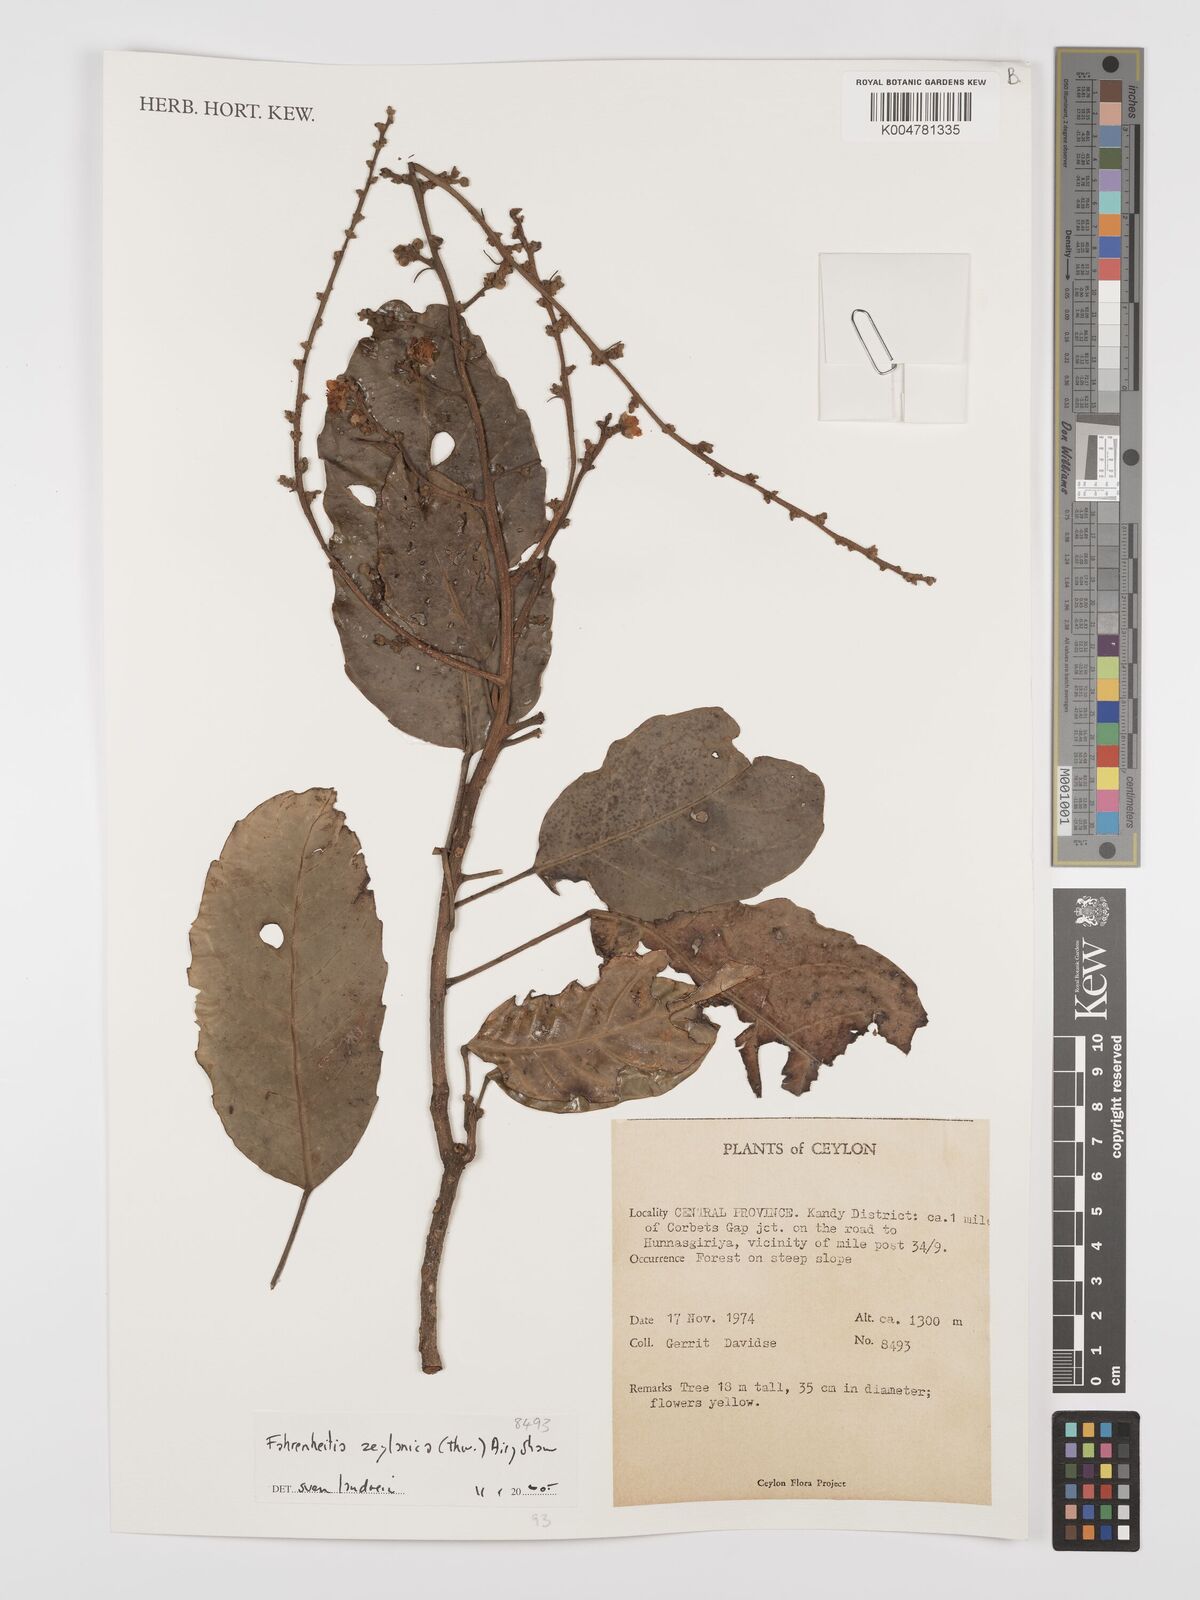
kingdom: Plantae
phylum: Tracheophyta
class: Magnoliopsida
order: Malpighiales
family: Euphorbiaceae
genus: Paracroton
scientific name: Paracroton zeylanicus
